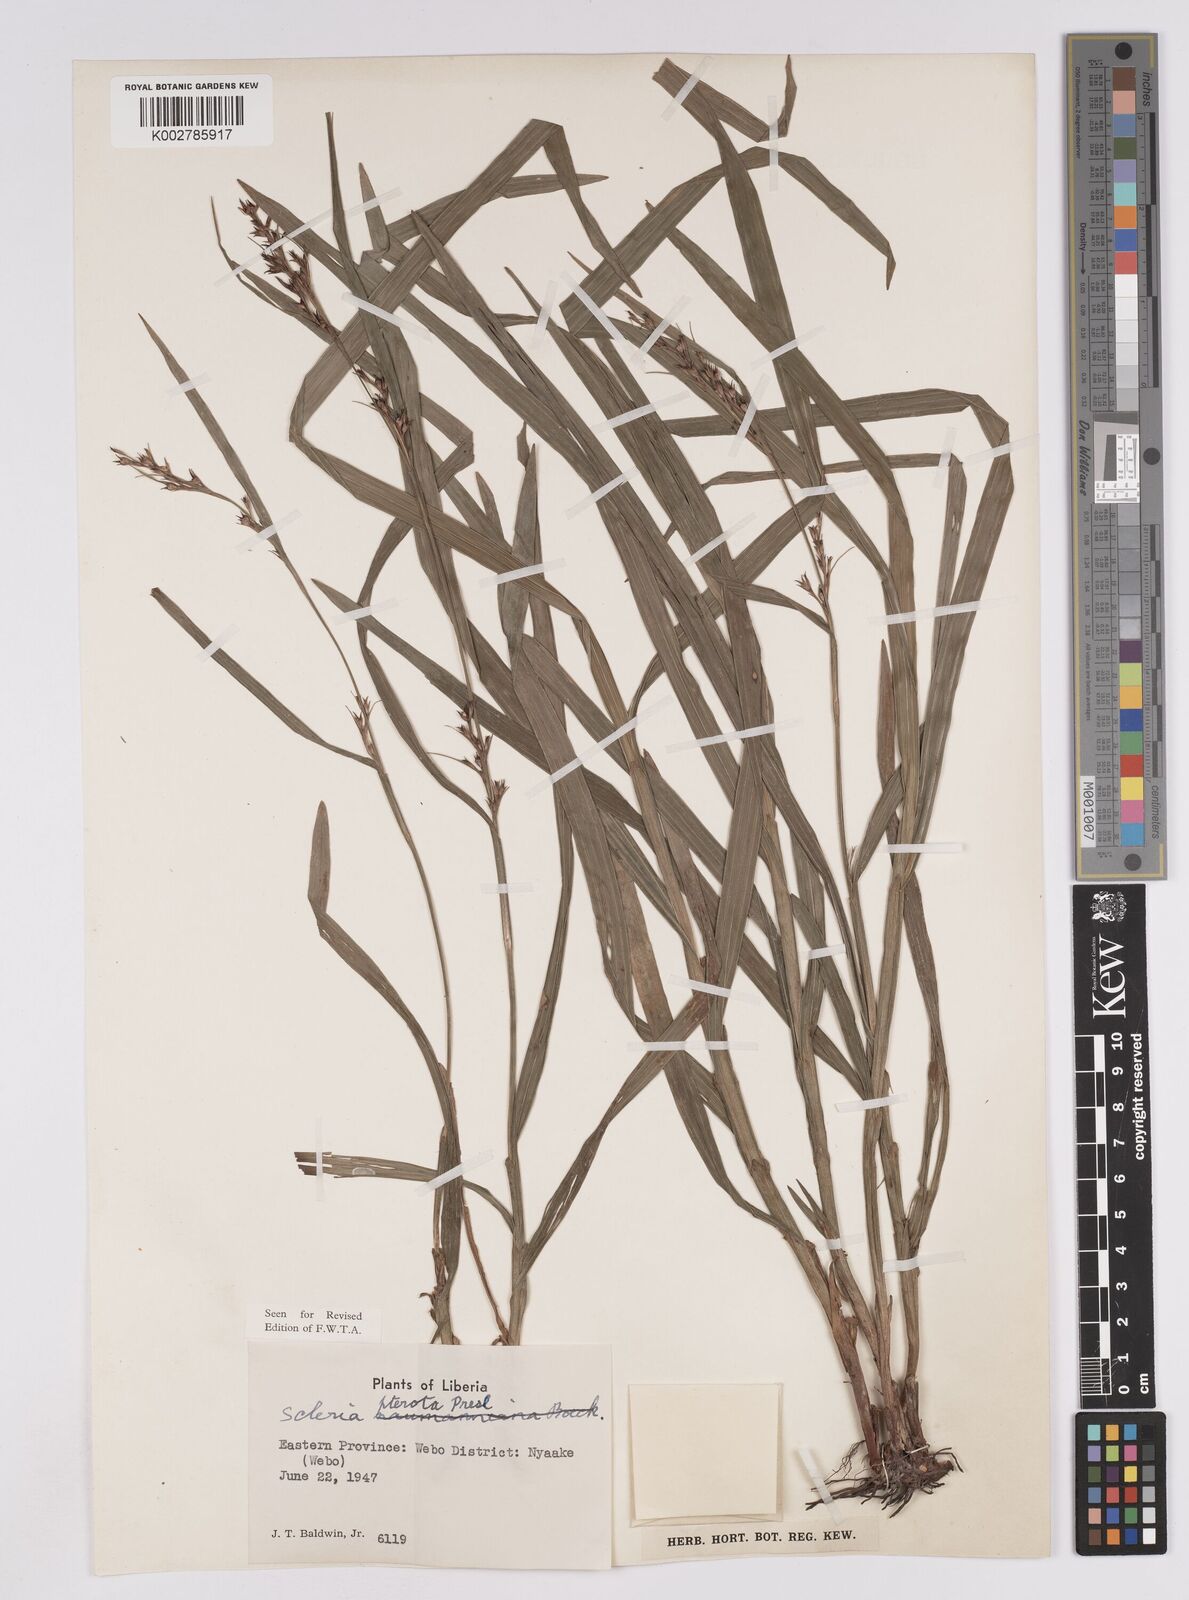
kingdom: Plantae
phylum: Tracheophyta
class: Liliopsida
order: Poales
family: Cyperaceae
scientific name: Cyperaceae
